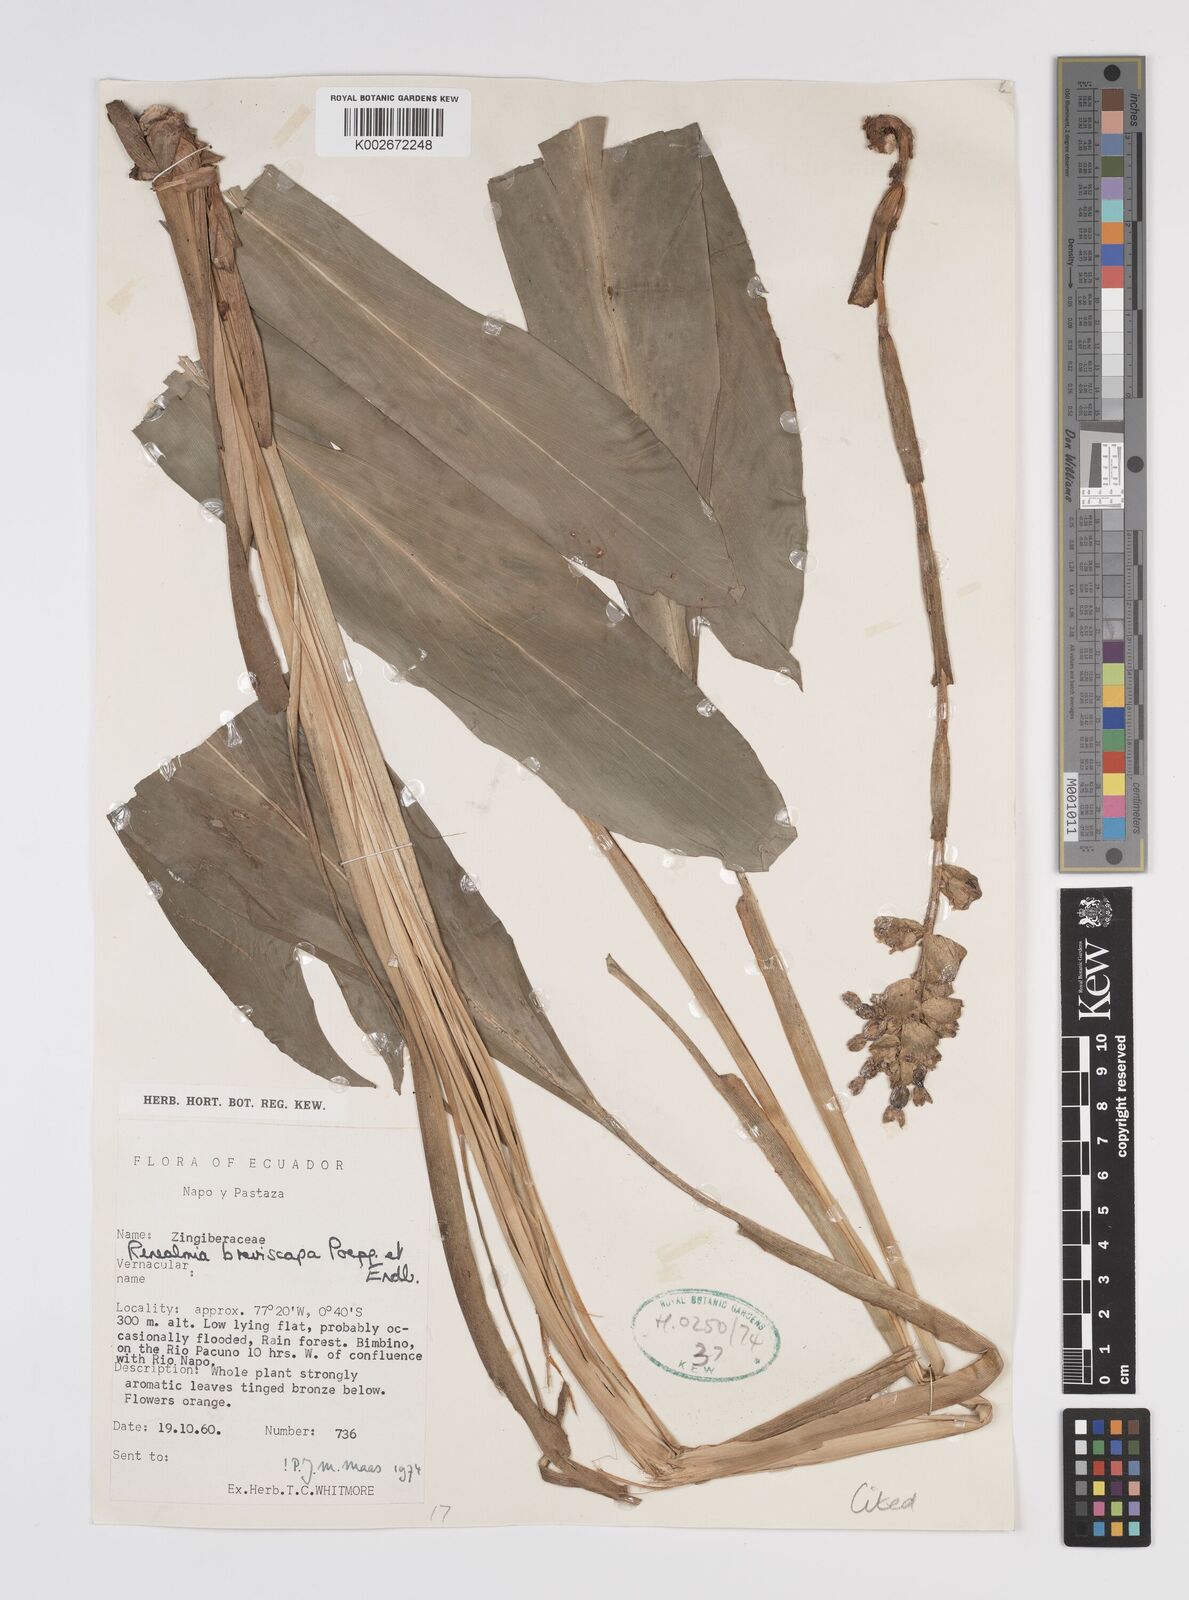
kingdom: Plantae
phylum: Tracheophyta
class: Liliopsida
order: Zingiberales
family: Zingiberaceae
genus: Renealmia
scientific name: Renealmia breviscapa
